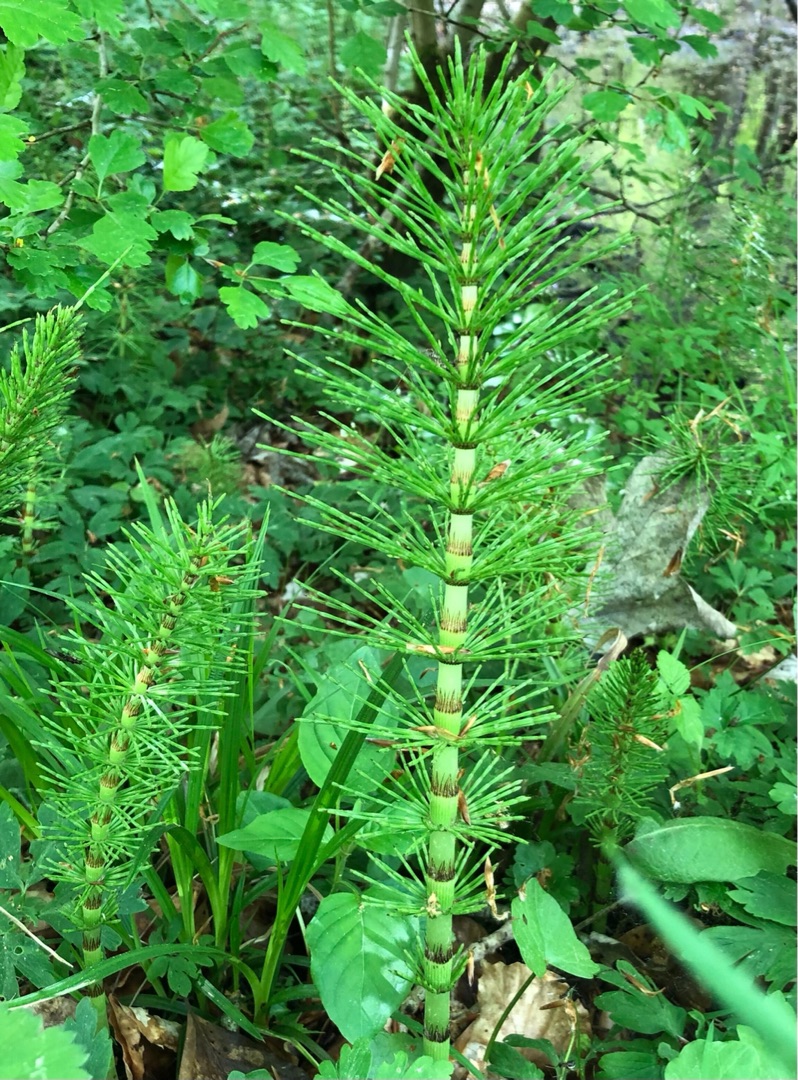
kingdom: Plantae
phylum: Tracheophyta
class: Polypodiopsida
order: Equisetales
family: Equisetaceae
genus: Equisetum
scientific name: Equisetum telmateia
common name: Elfenbens-padderok
